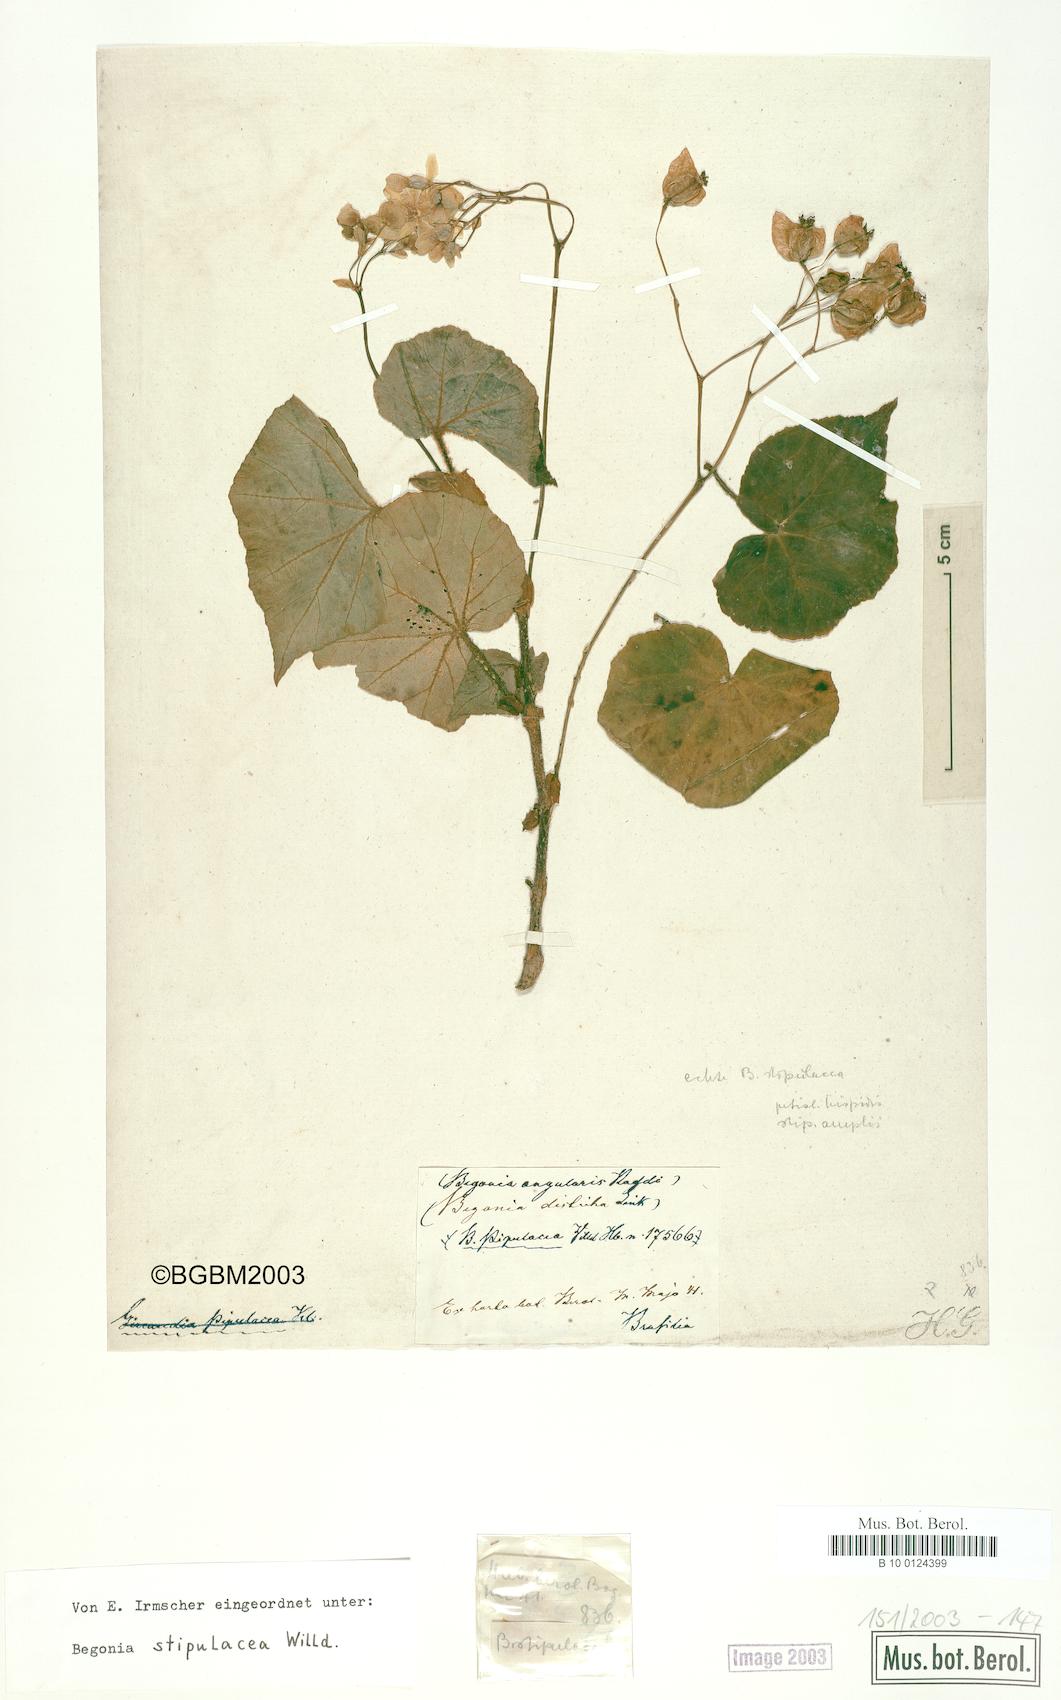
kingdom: Plantae
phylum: Tracheophyta
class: Magnoliopsida
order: Cucurbitales
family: Begoniaceae
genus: Begonia
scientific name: Begonia stipularis
